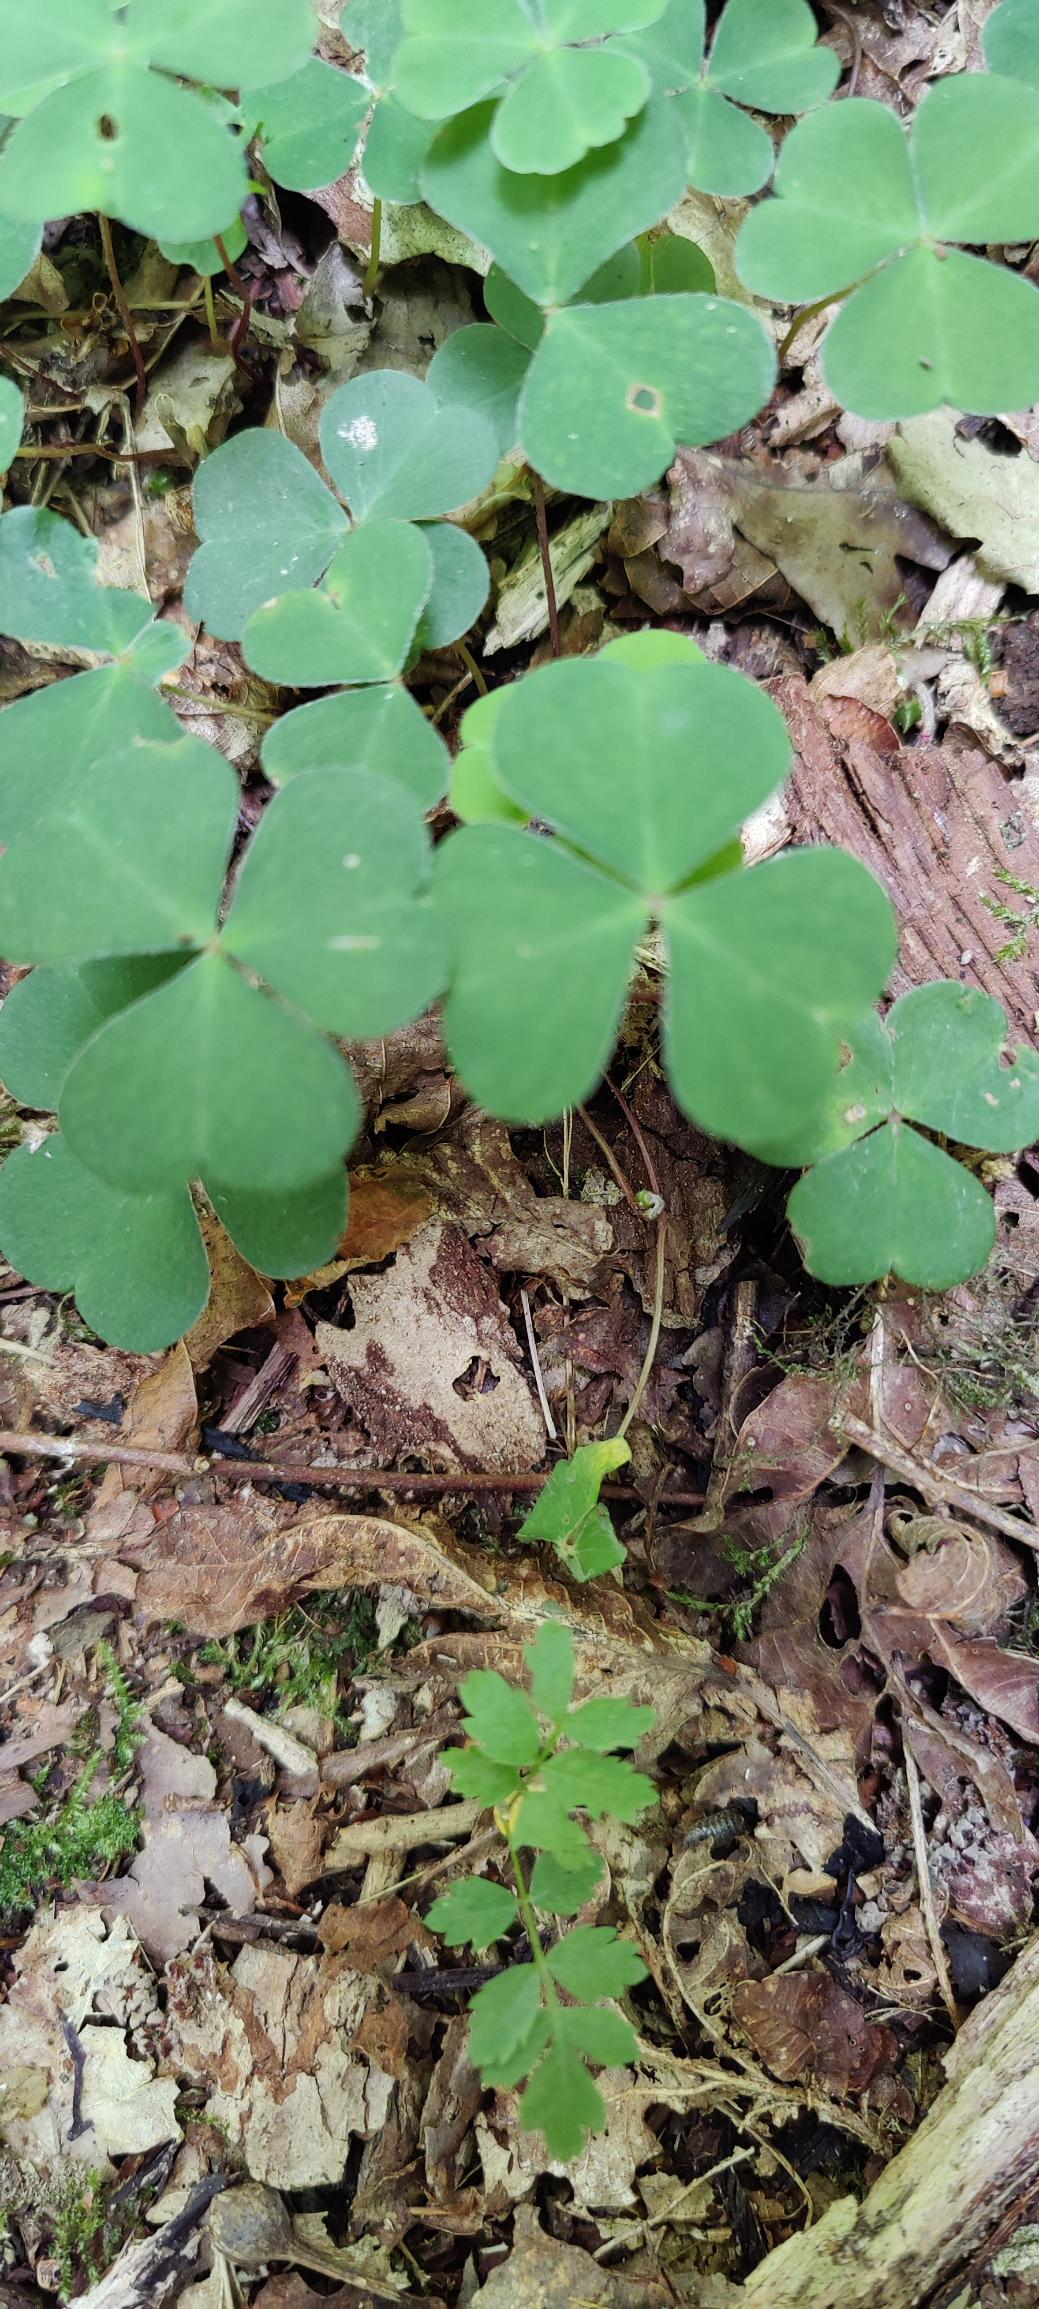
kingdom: Plantae
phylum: Tracheophyta
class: Magnoliopsida
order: Oxalidales
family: Oxalidaceae
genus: Oxalis
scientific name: Oxalis acetosella
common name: Skovsyre
